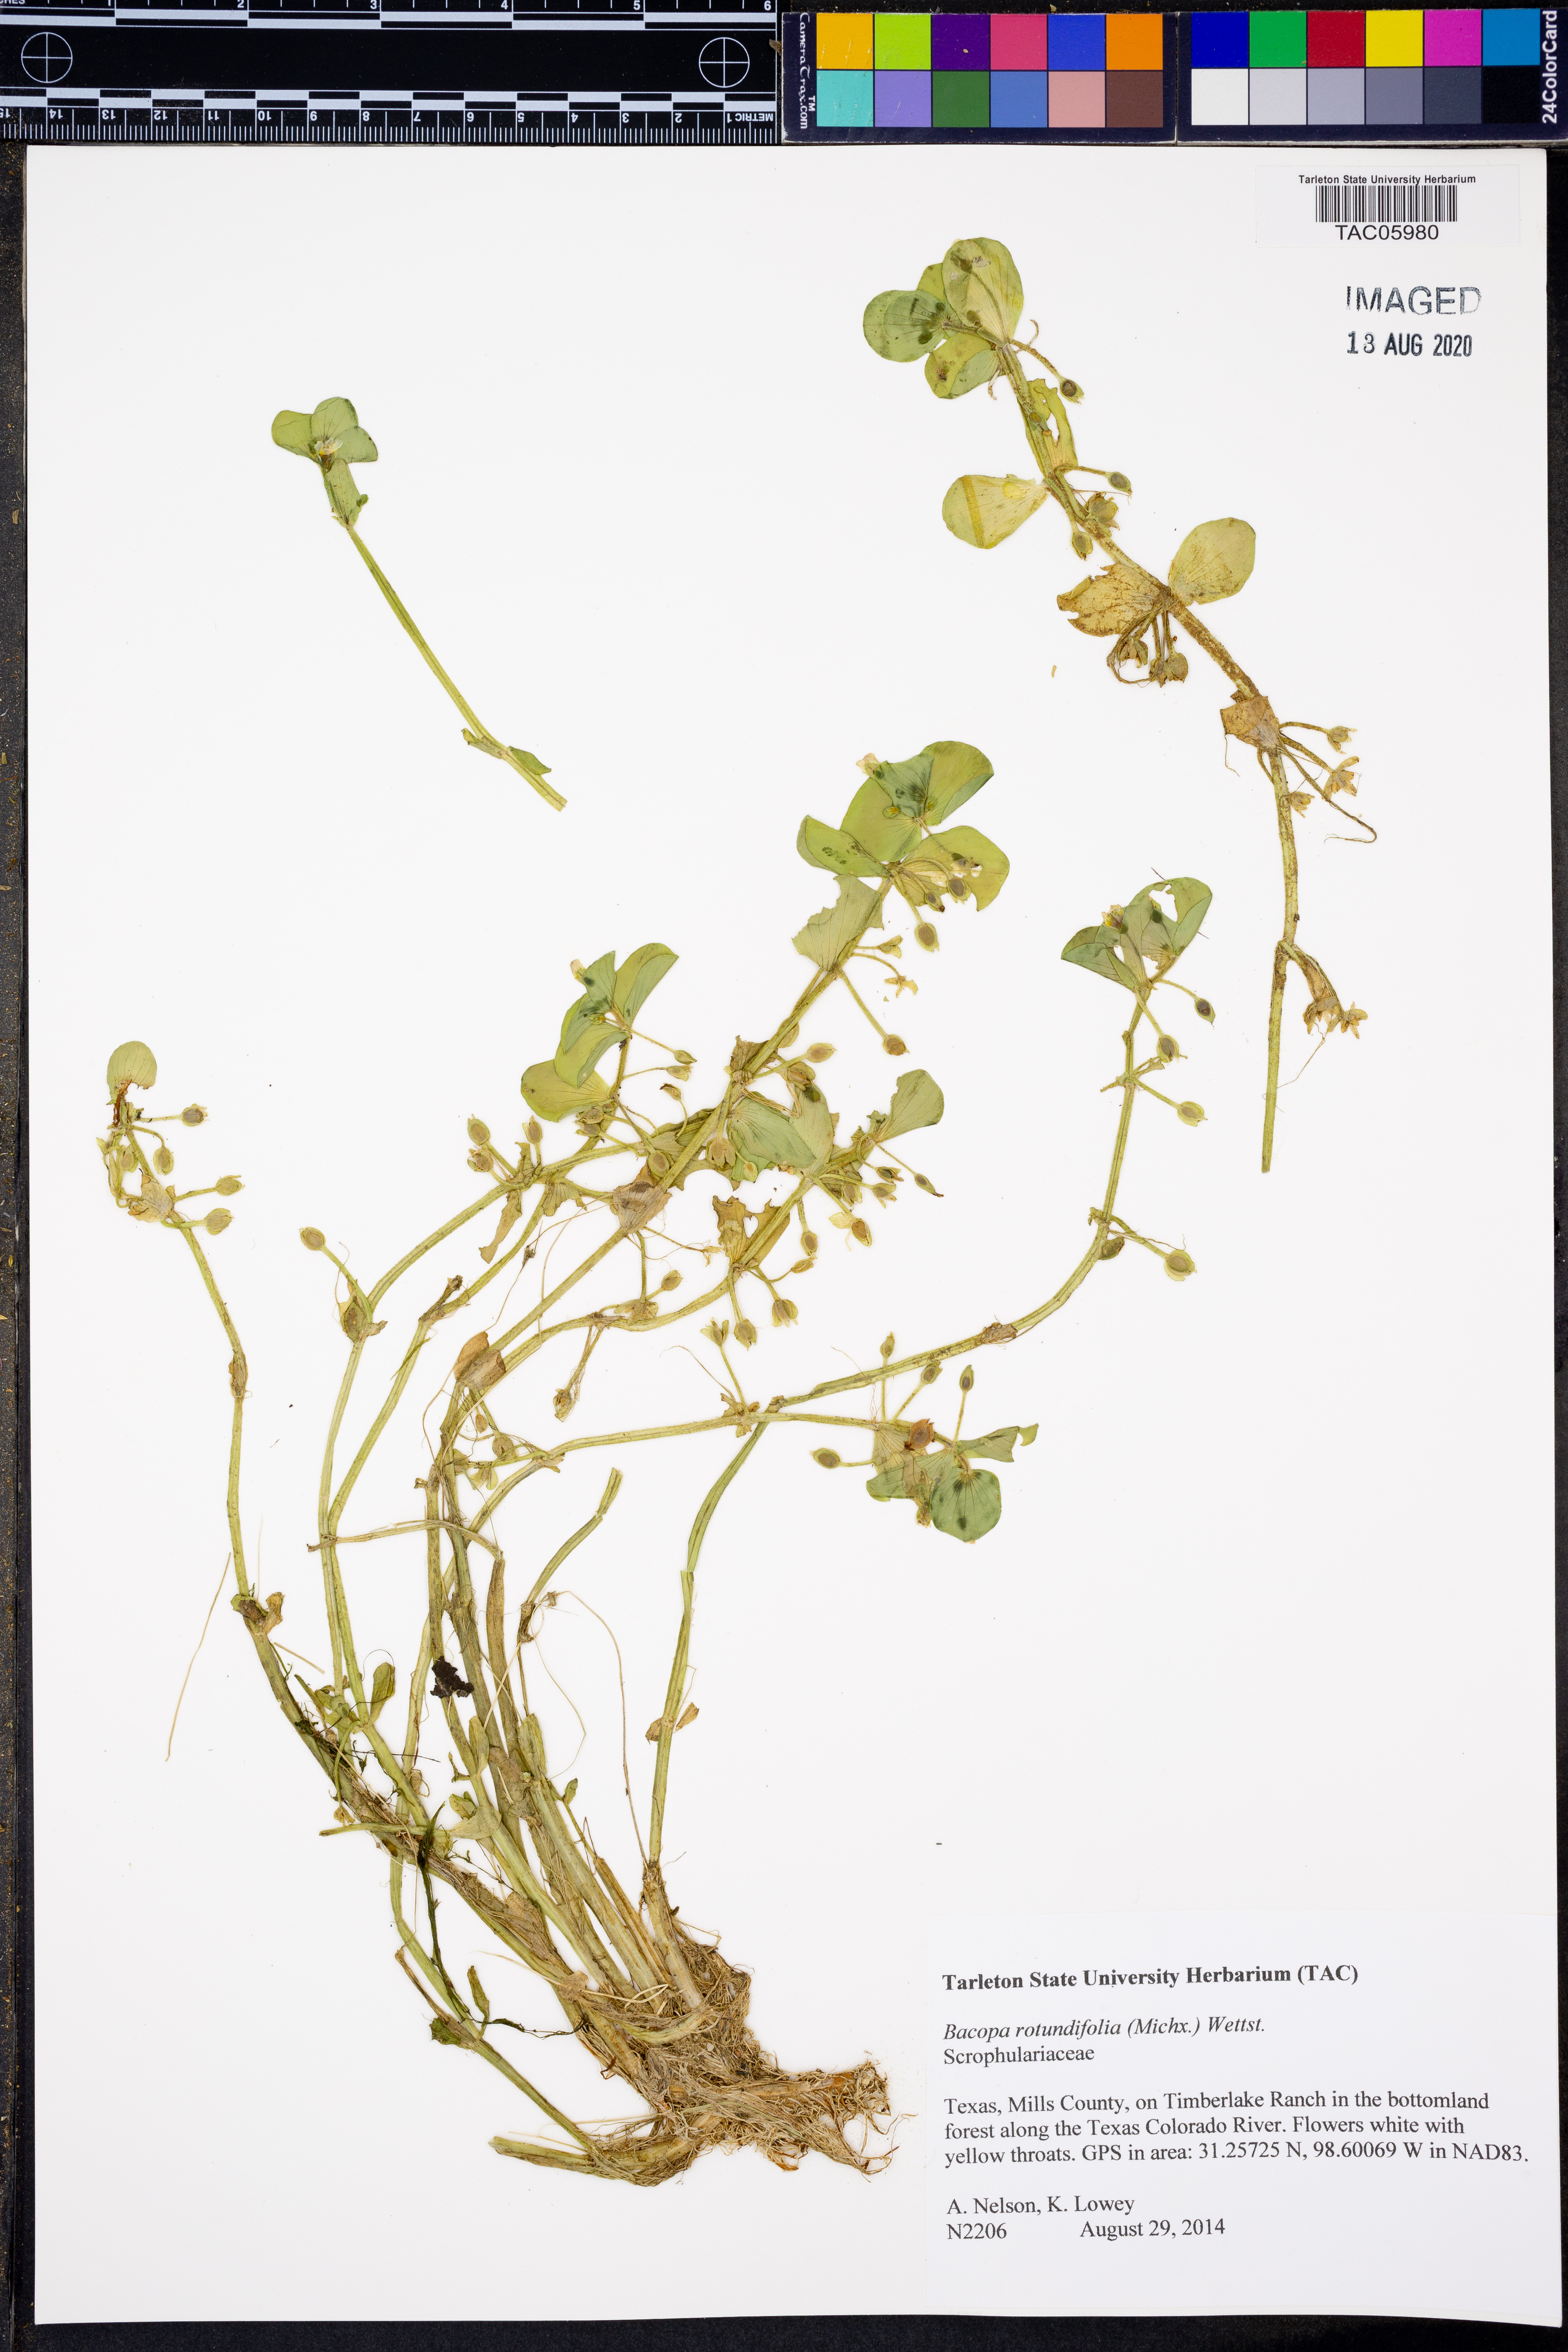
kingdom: Plantae
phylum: Tracheophyta
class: Magnoliopsida
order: Lamiales
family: Plantaginaceae
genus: Bacopa
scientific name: Bacopa rotundifolia
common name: Disc water hyssop
